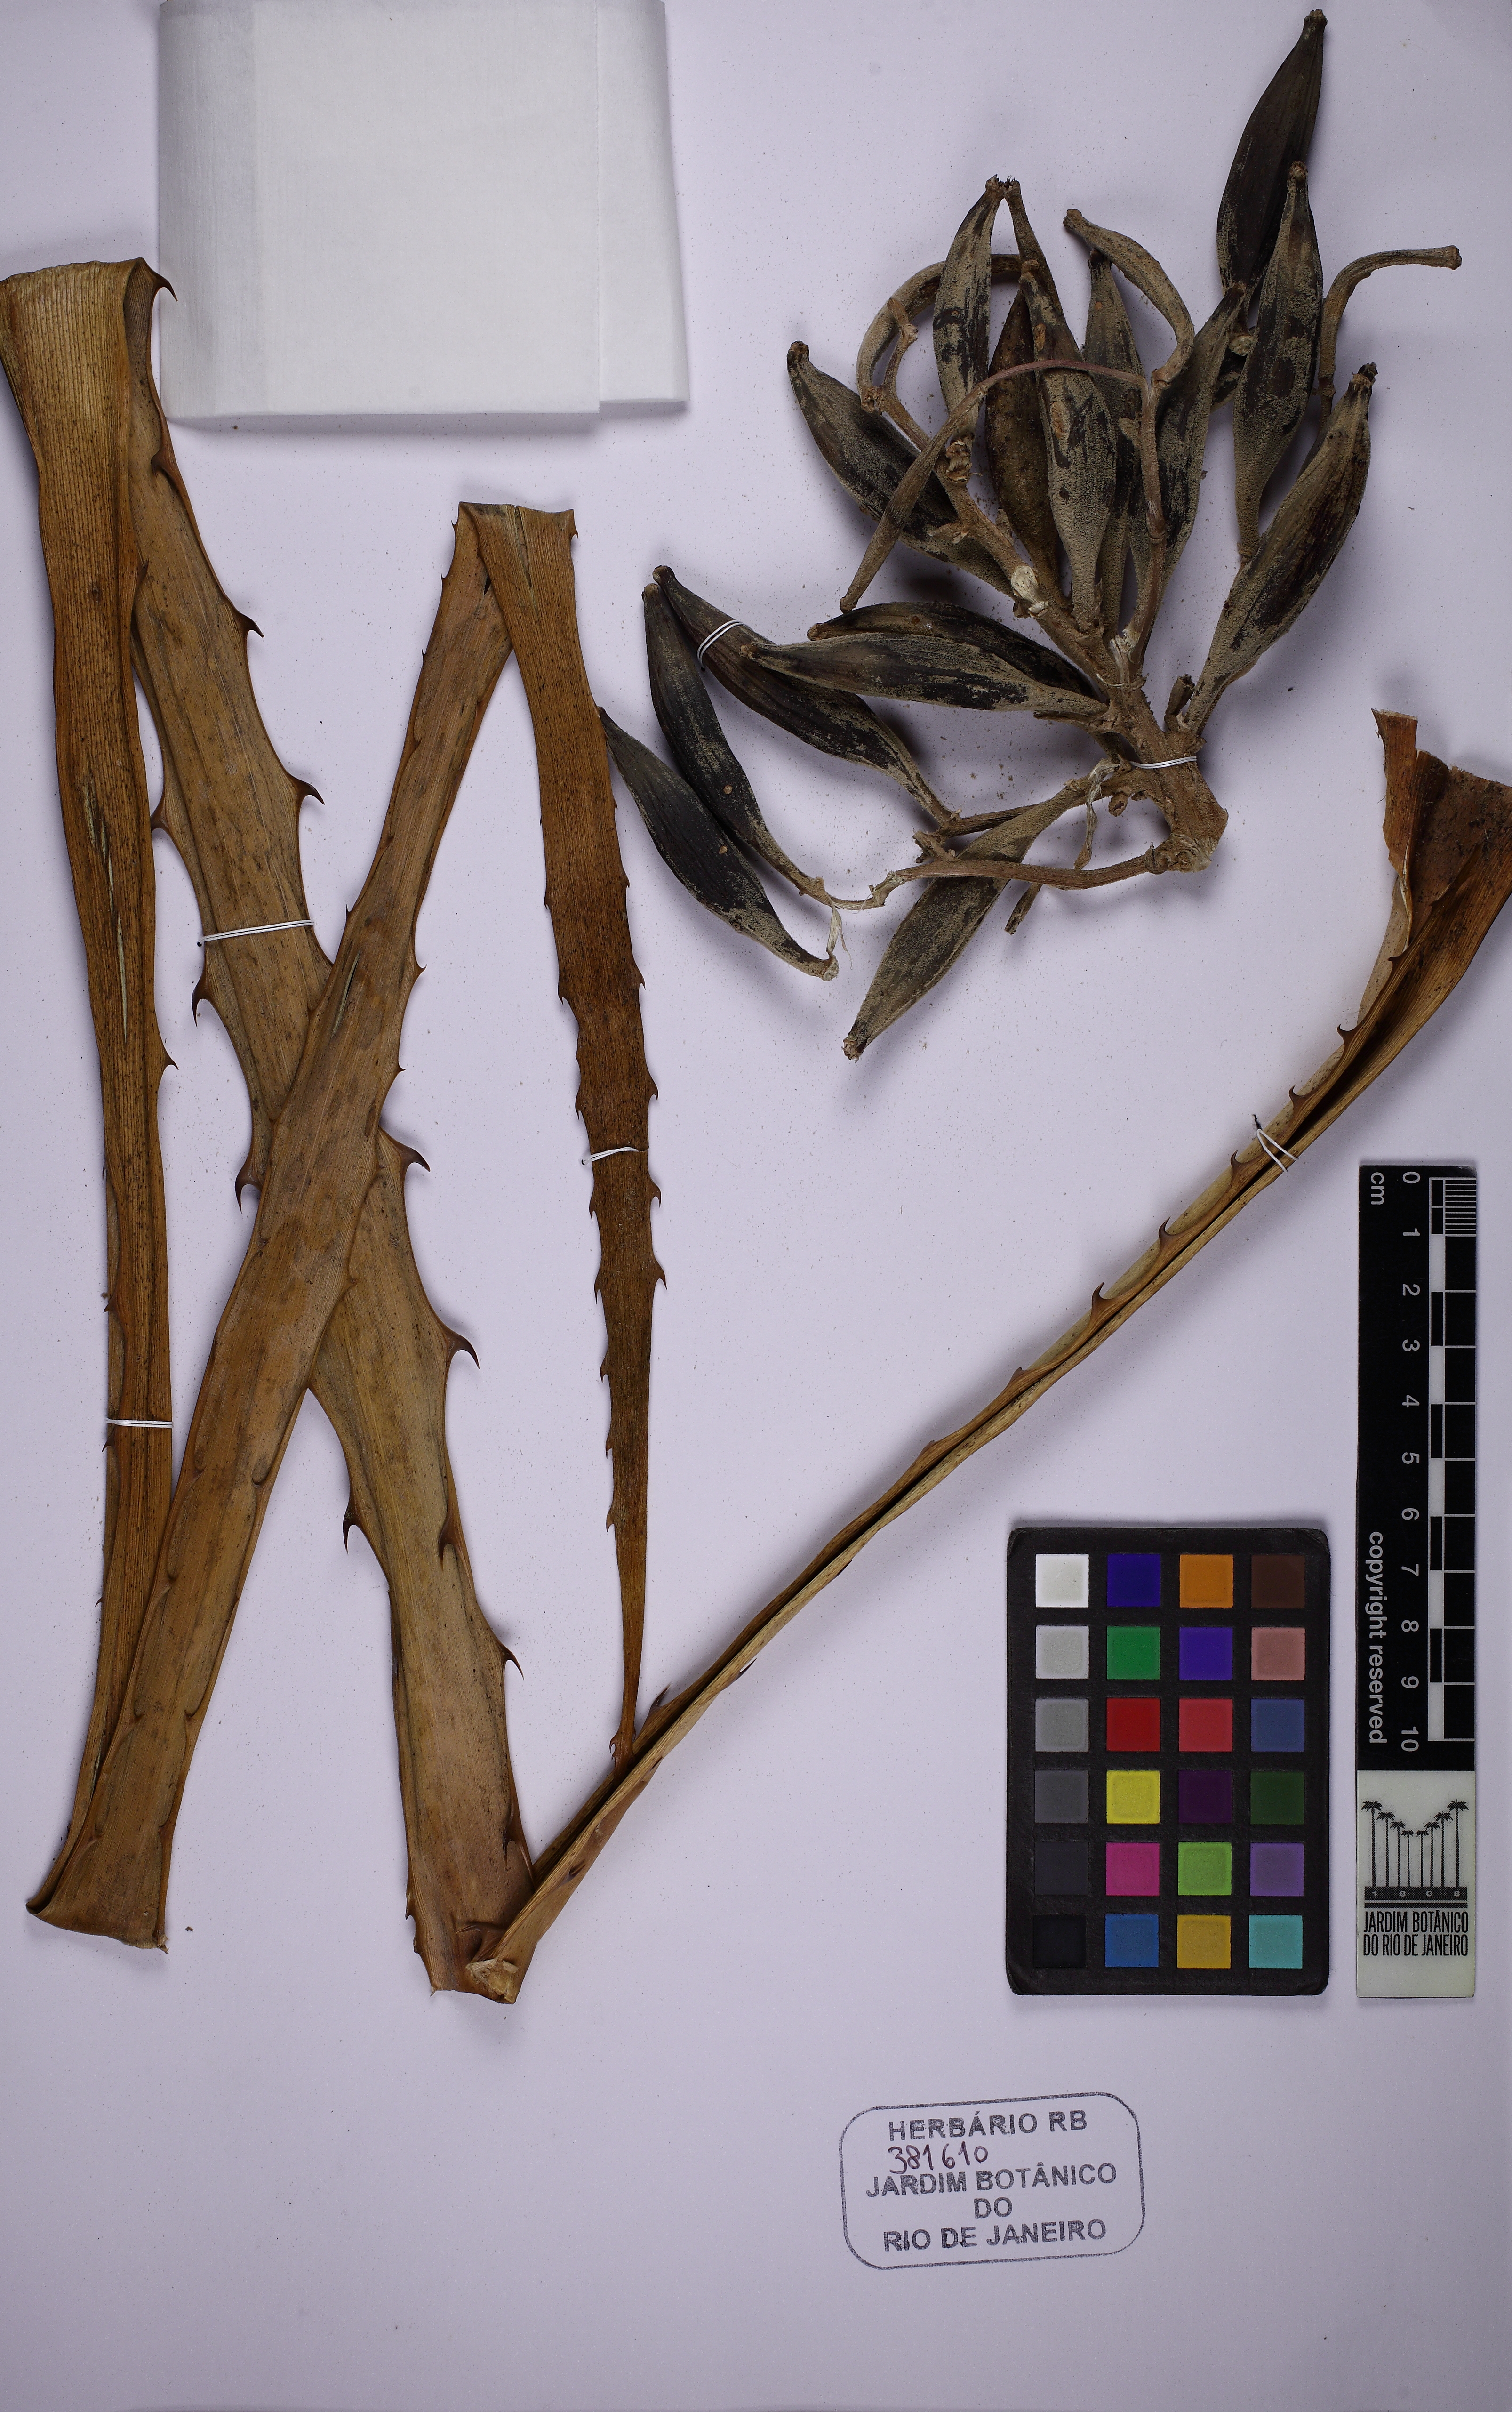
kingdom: Plantae
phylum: Tracheophyta
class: Liliopsida
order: Poales
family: Bromeliaceae
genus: Bromelia
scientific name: Bromelia binotii
